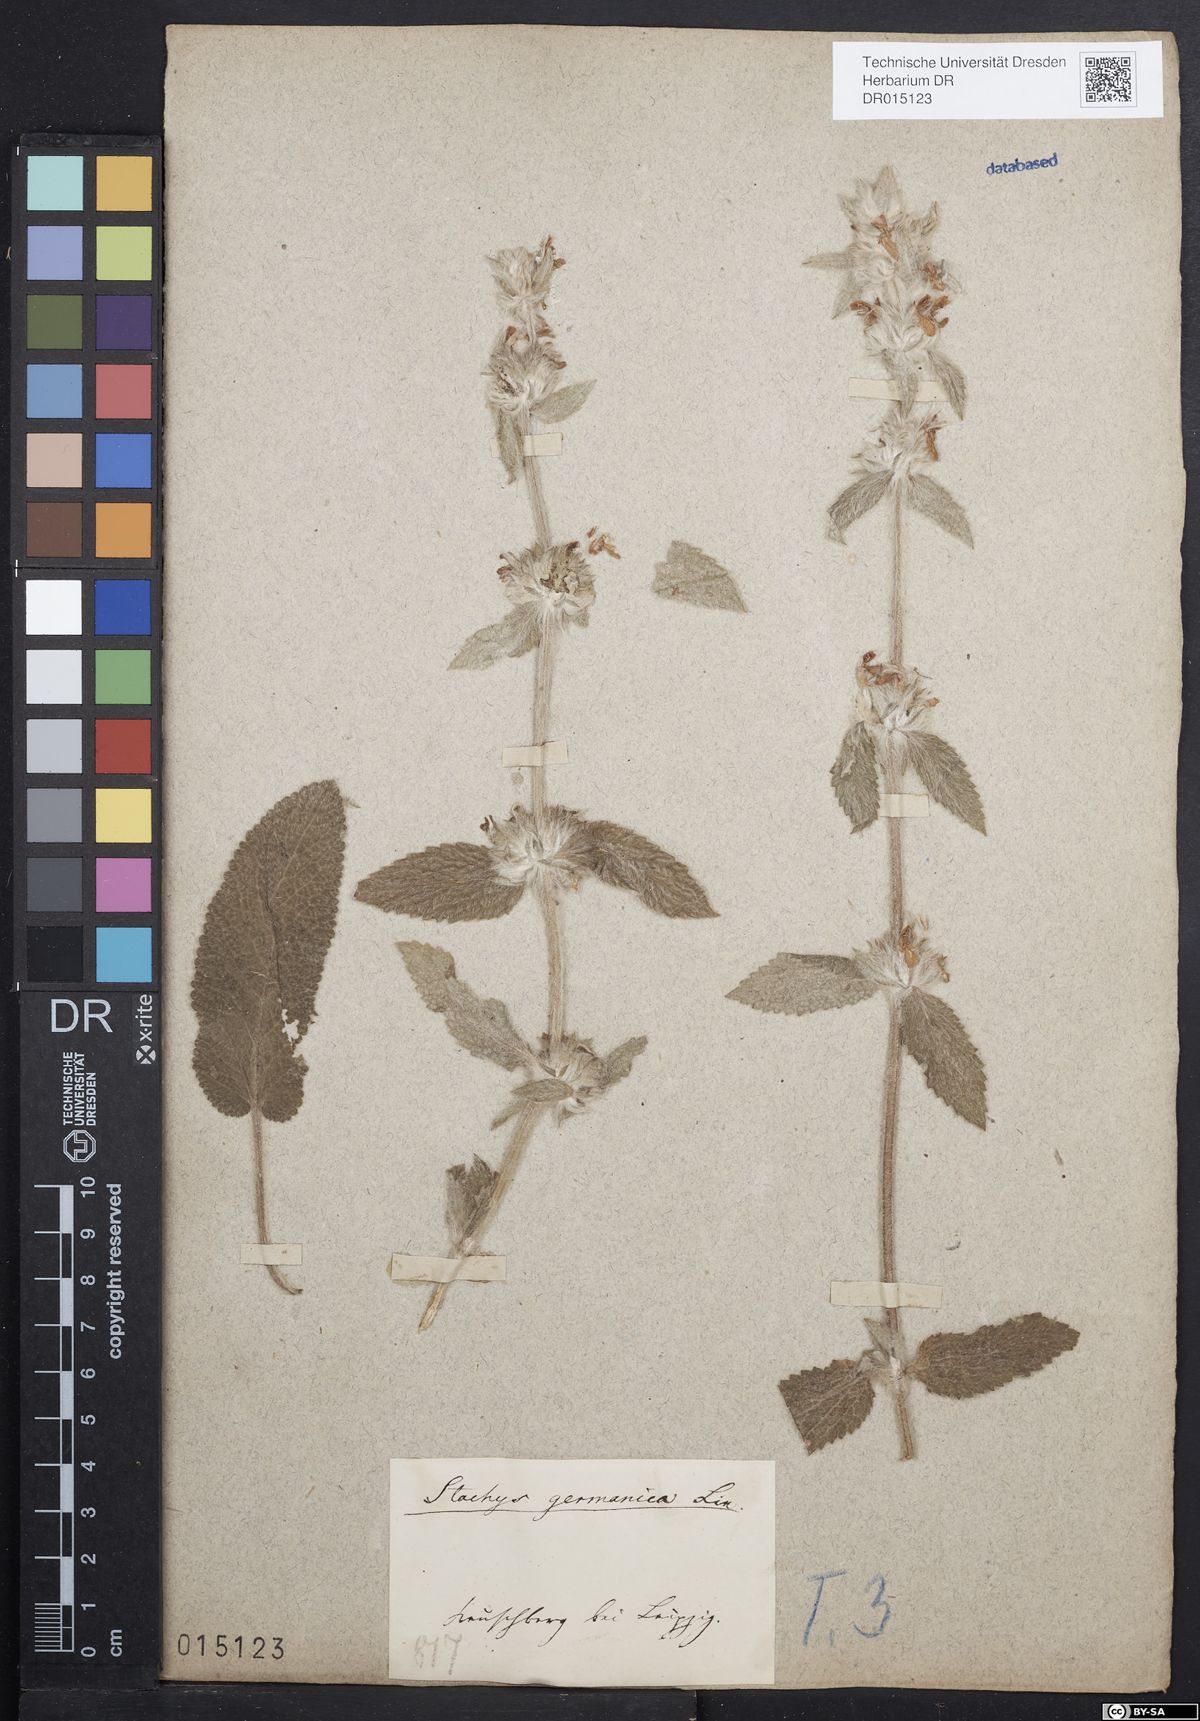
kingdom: Plantae
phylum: Tracheophyta
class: Magnoliopsida
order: Lamiales
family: Lamiaceae
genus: Stachys
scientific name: Stachys germanica
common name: Downy woundwort
